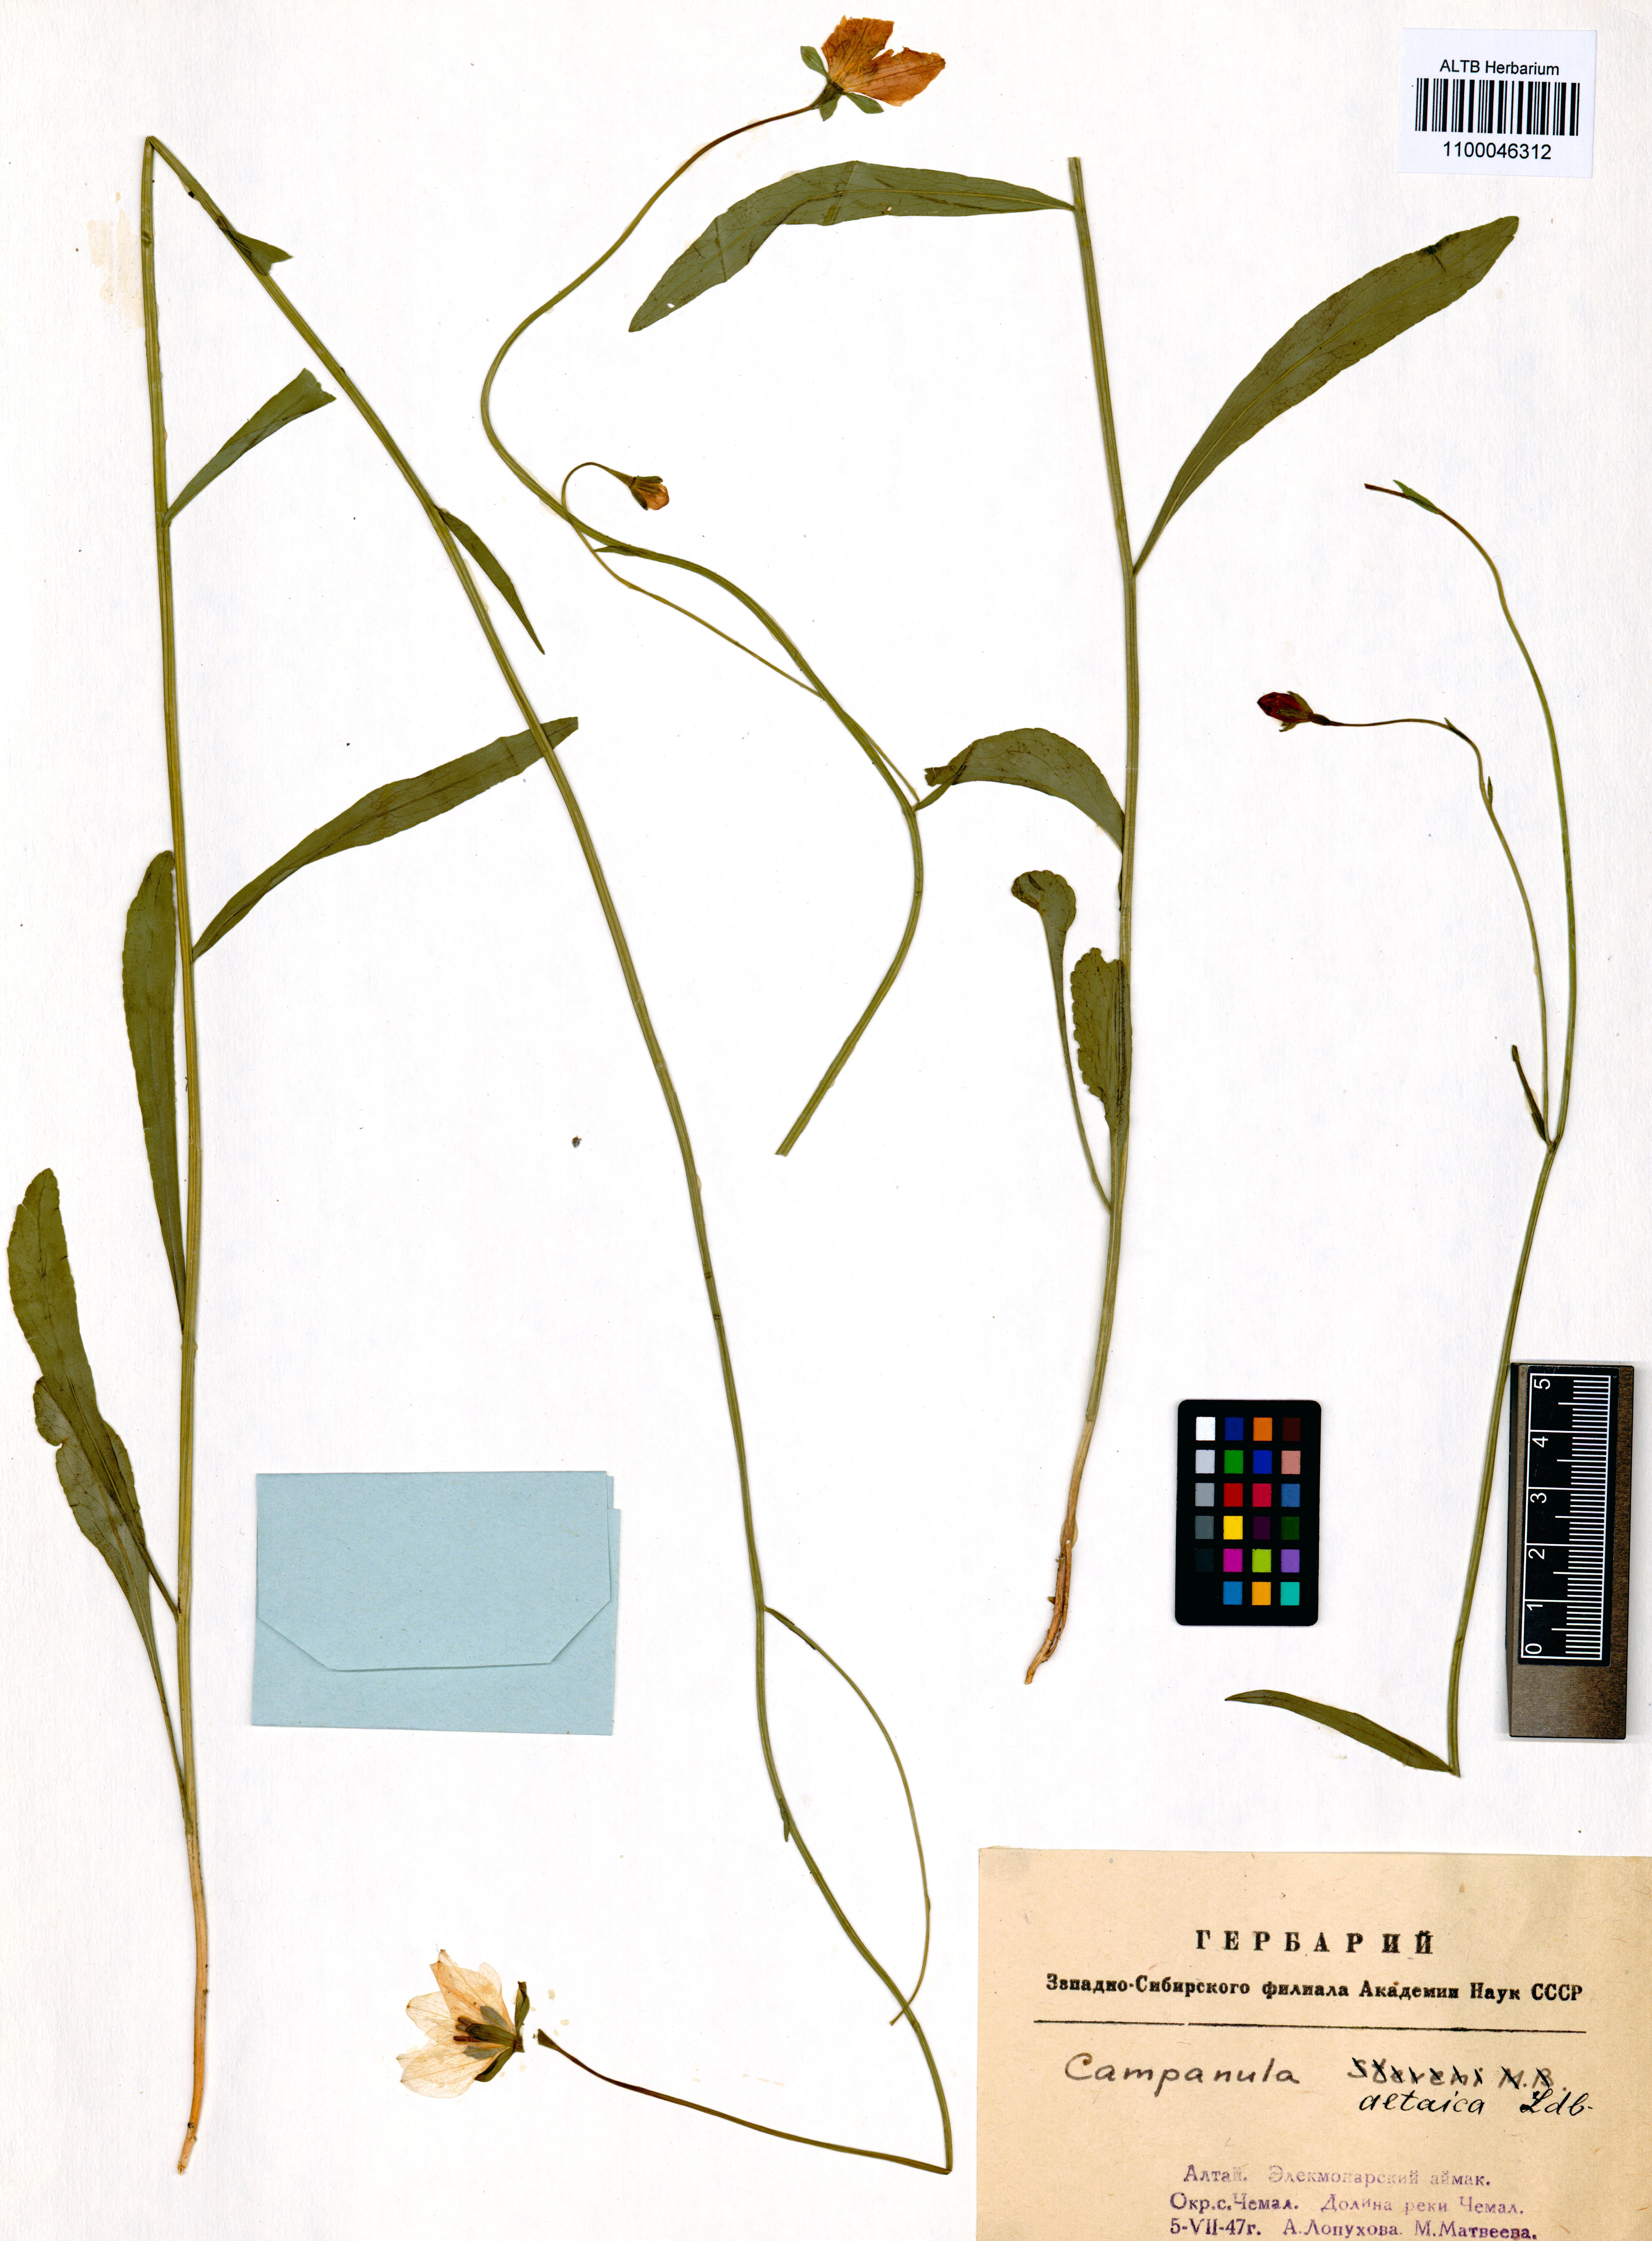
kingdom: Plantae
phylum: Tracheophyta
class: Magnoliopsida
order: Asterales
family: Campanulaceae
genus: Campanula
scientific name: Campanula stevenii
